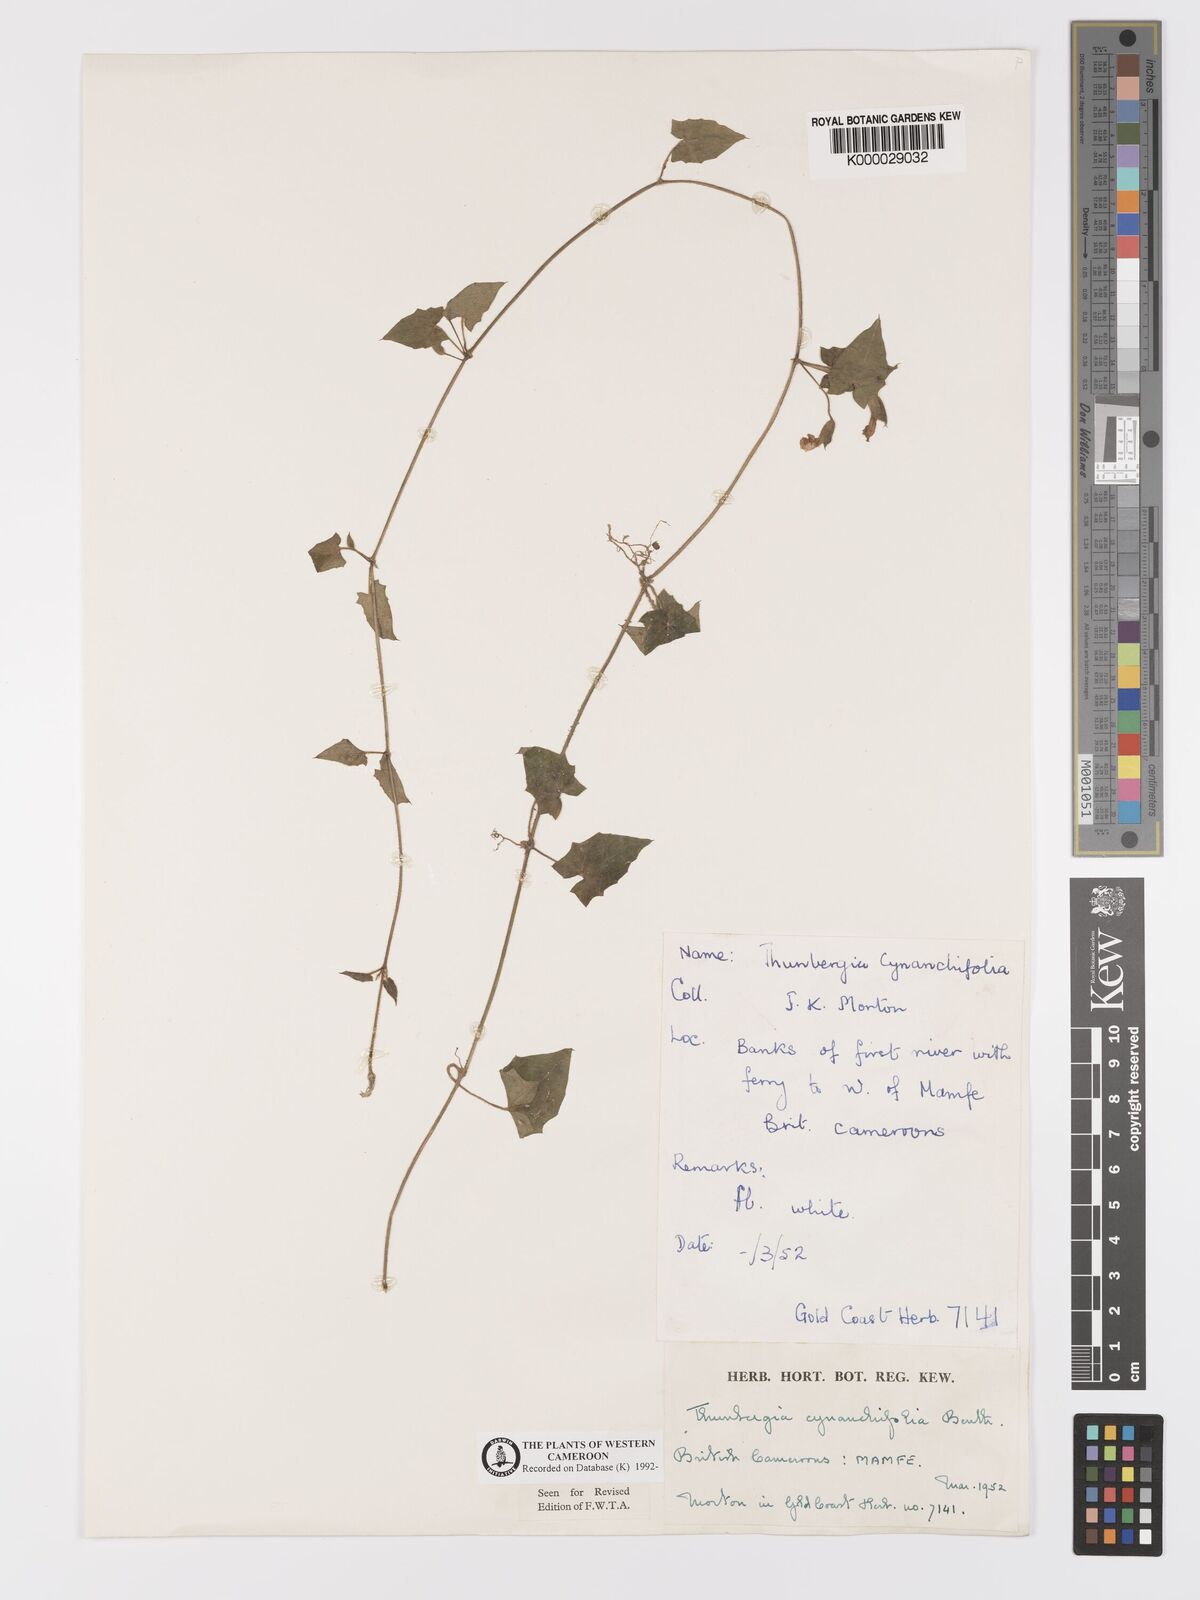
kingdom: Plantae
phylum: Tracheophyta
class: Magnoliopsida
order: Lamiales
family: Acanthaceae
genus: Thunbergia
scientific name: Thunbergia cynanchifolia
